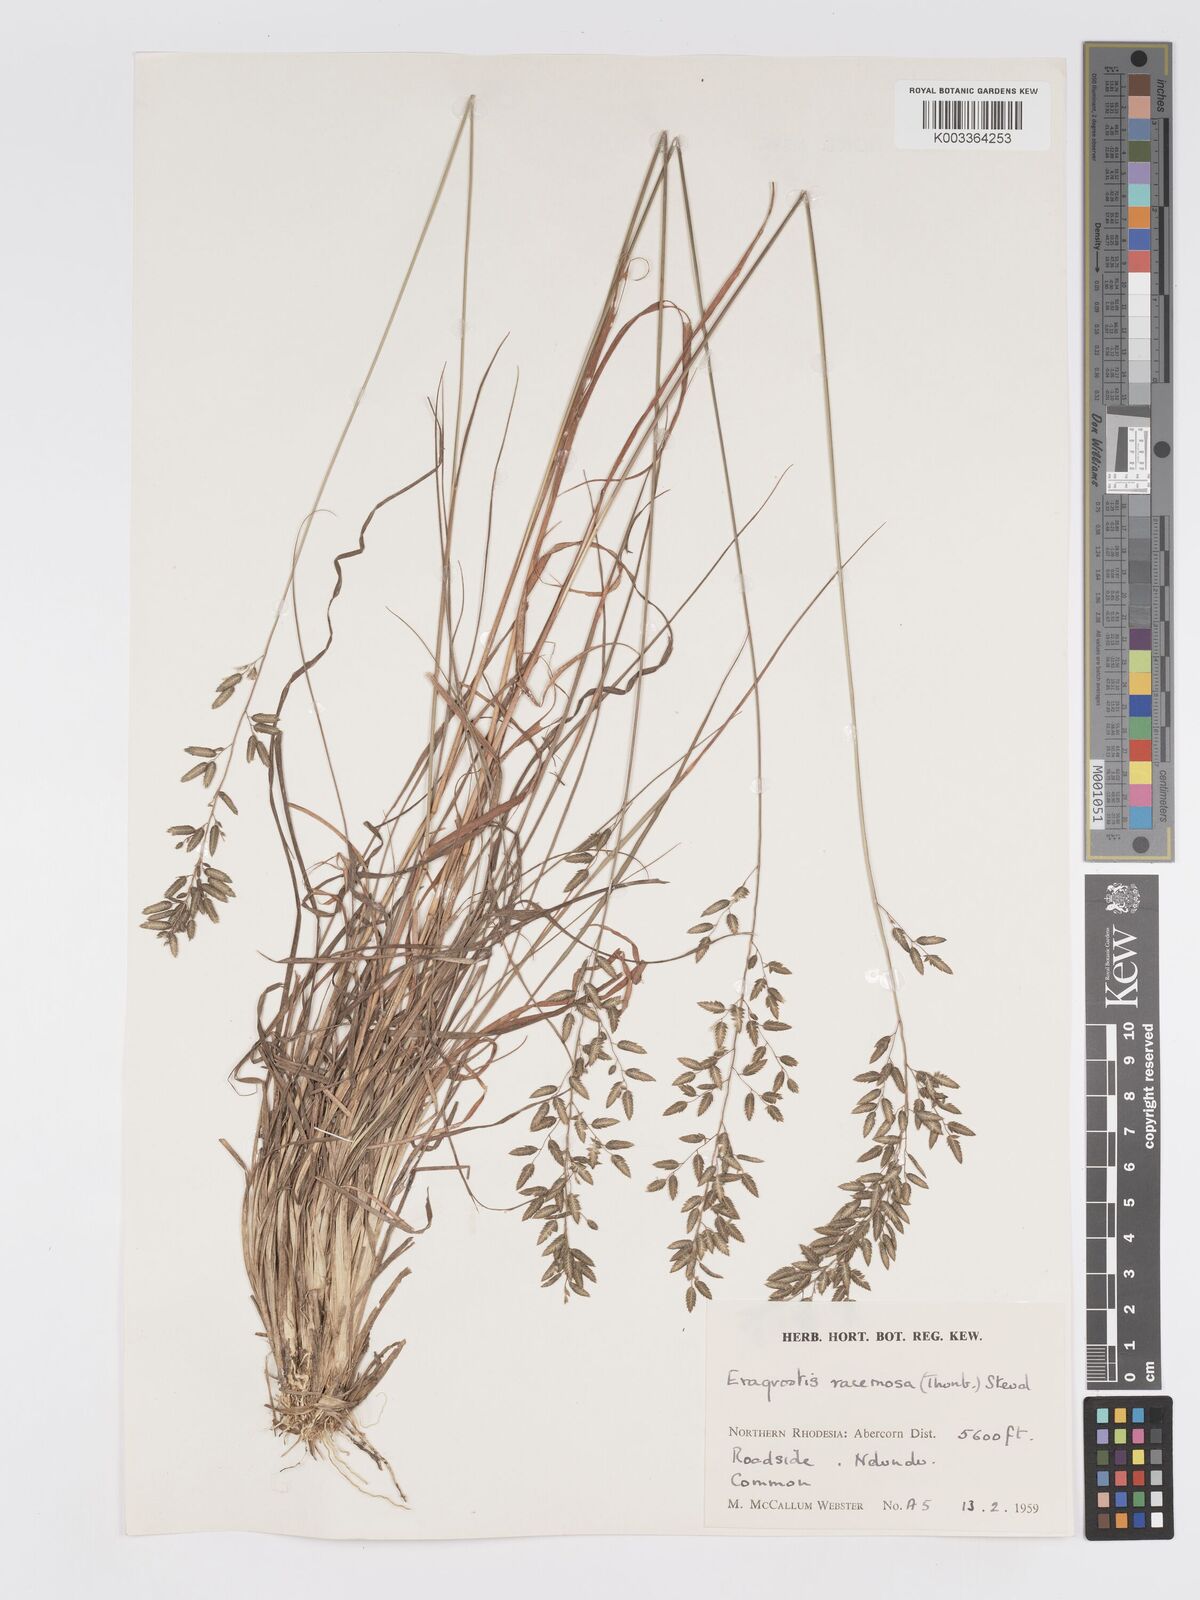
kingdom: Plantae
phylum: Tracheophyta
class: Liliopsida
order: Poales
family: Poaceae
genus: Eragrostis
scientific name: Eragrostis racemosa
